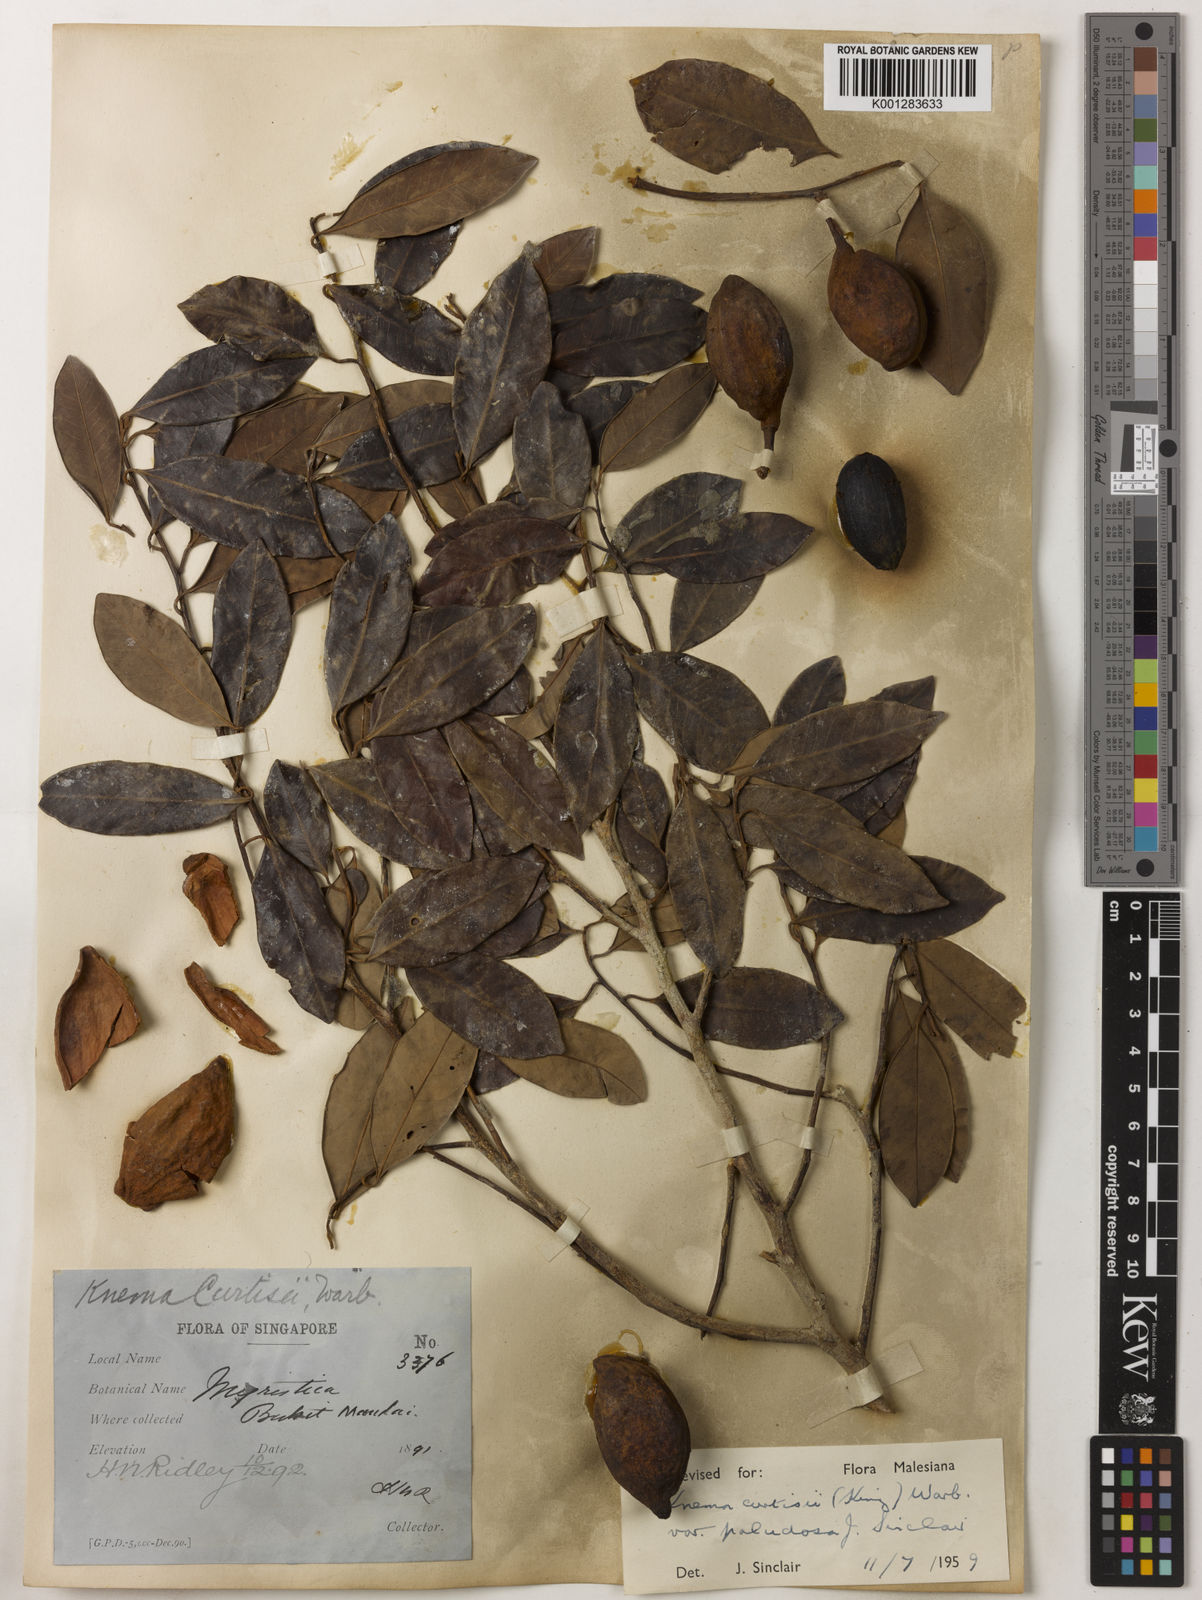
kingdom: Plantae
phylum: Tracheophyta
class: Magnoliopsida
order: Magnoliales
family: Myristicaceae
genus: Knema
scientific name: Knema curtisii
